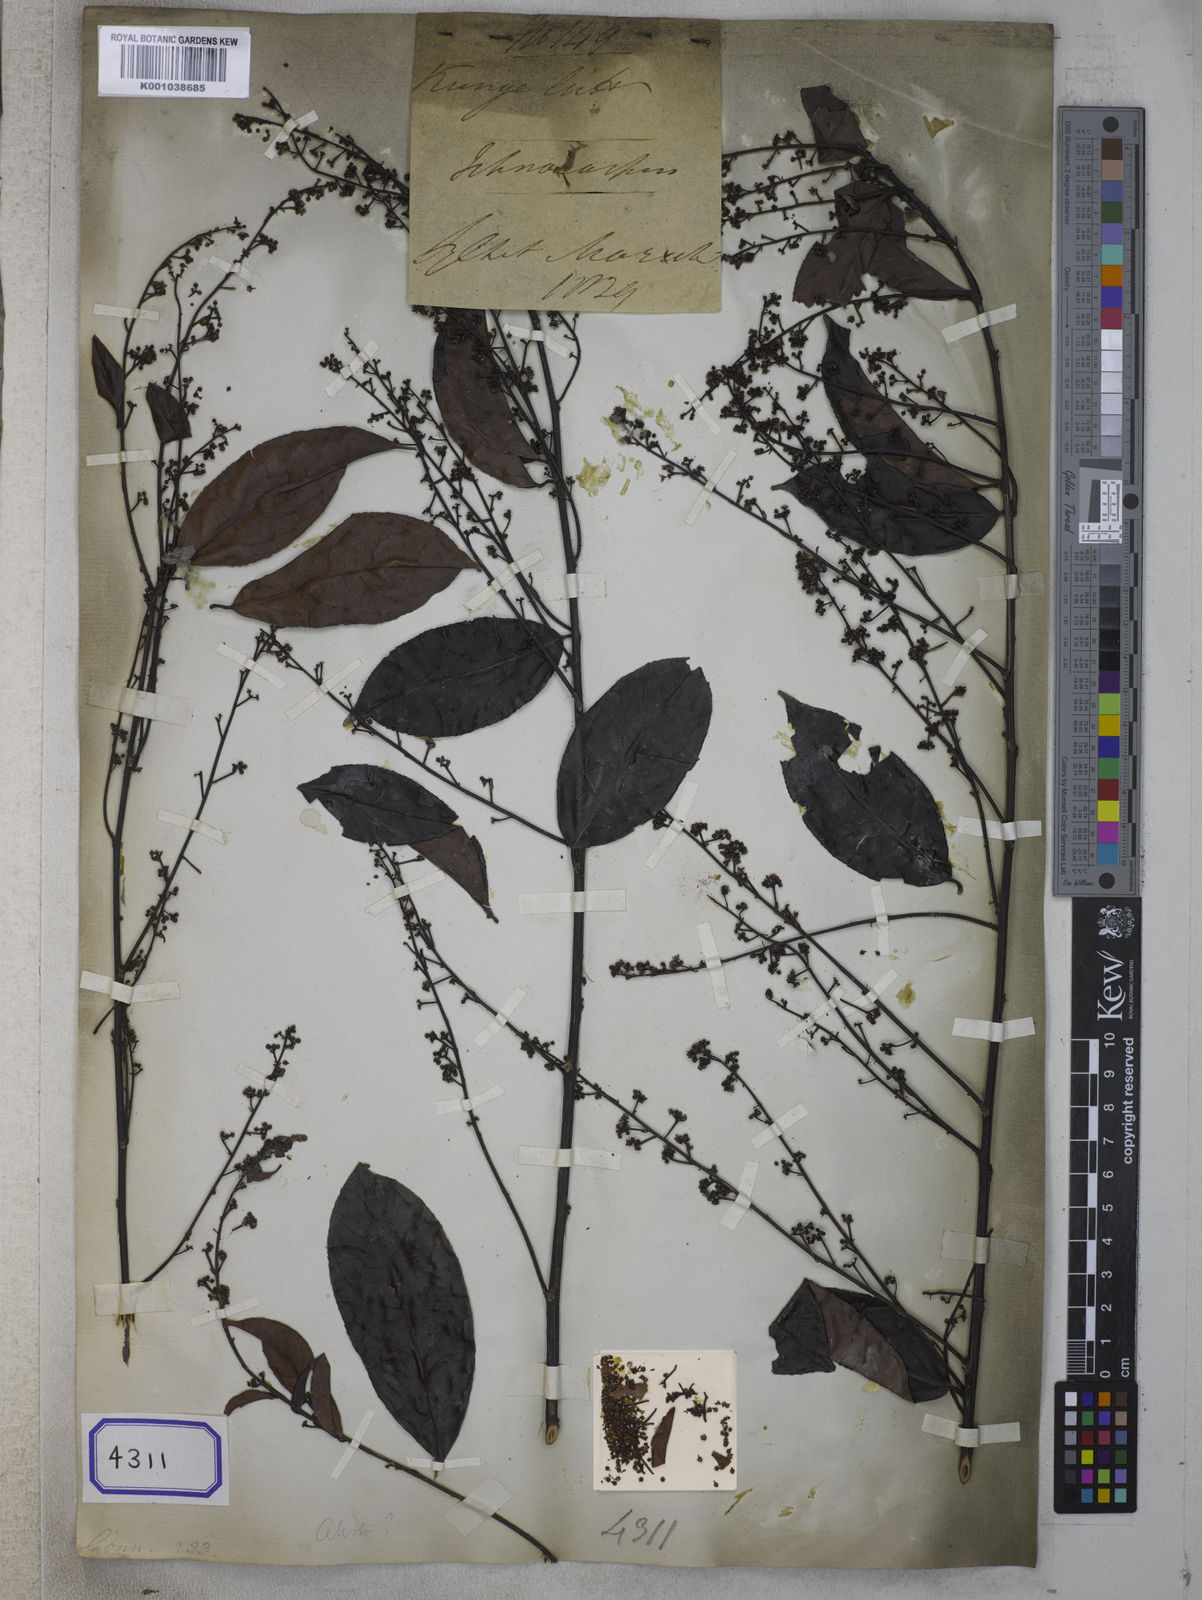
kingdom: Plantae
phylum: Tracheophyta
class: Magnoliopsida
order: Celastrales
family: Celastraceae
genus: Celastrus
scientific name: Celastrus monospermus
